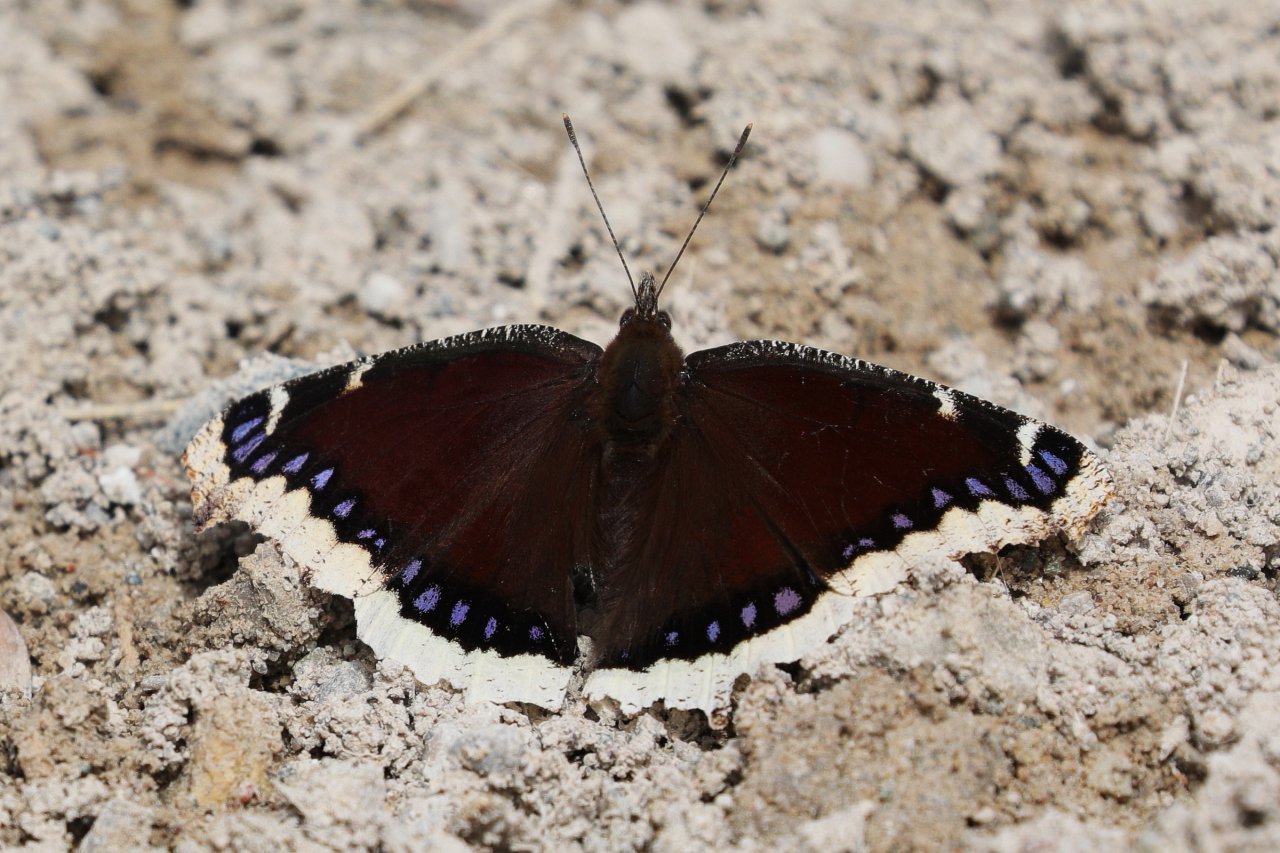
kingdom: Animalia
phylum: Arthropoda
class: Insecta
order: Lepidoptera
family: Nymphalidae
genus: Nymphalis
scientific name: Nymphalis antiopa
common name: Mourning Cloak
